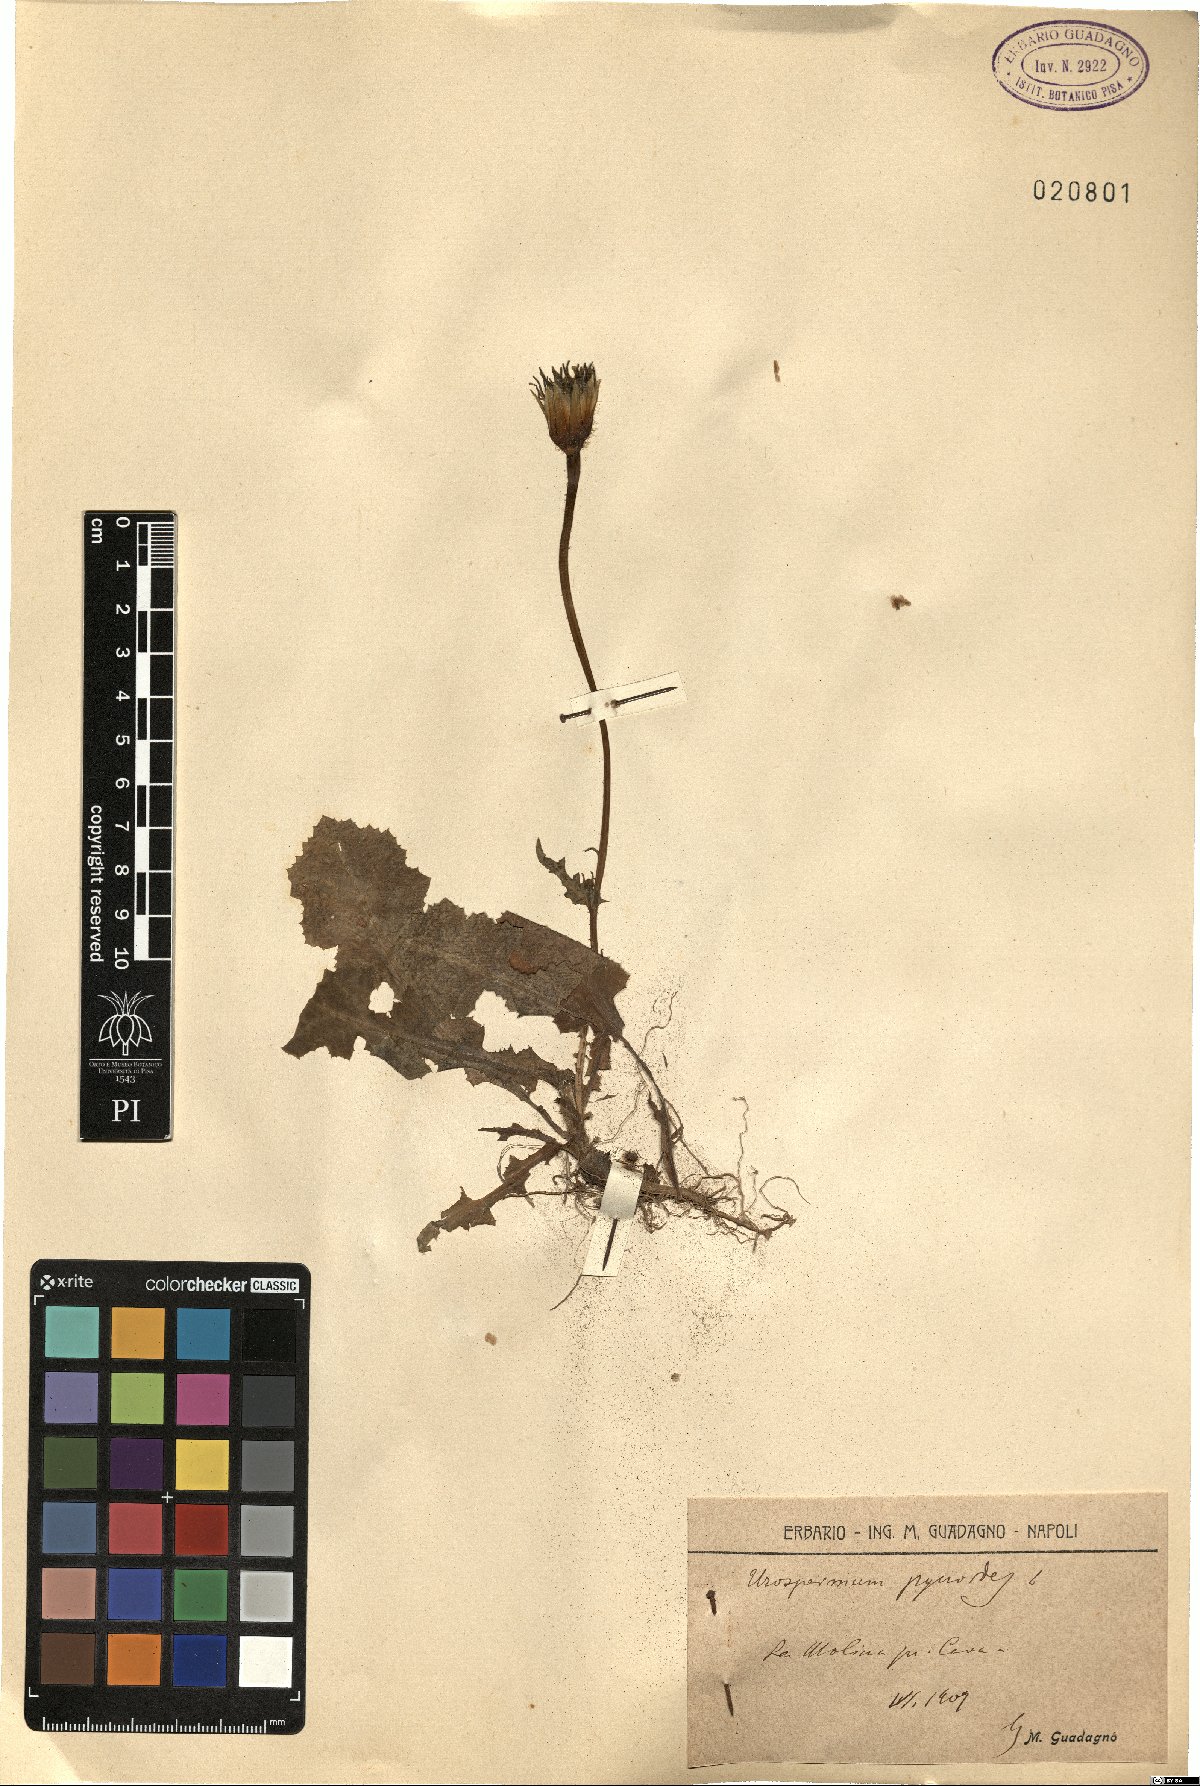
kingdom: Plantae
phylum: Tracheophyta
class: Magnoliopsida
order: Asterales
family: Asteraceae
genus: Urospermum
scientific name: Urospermum picroides
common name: False hawkbit
